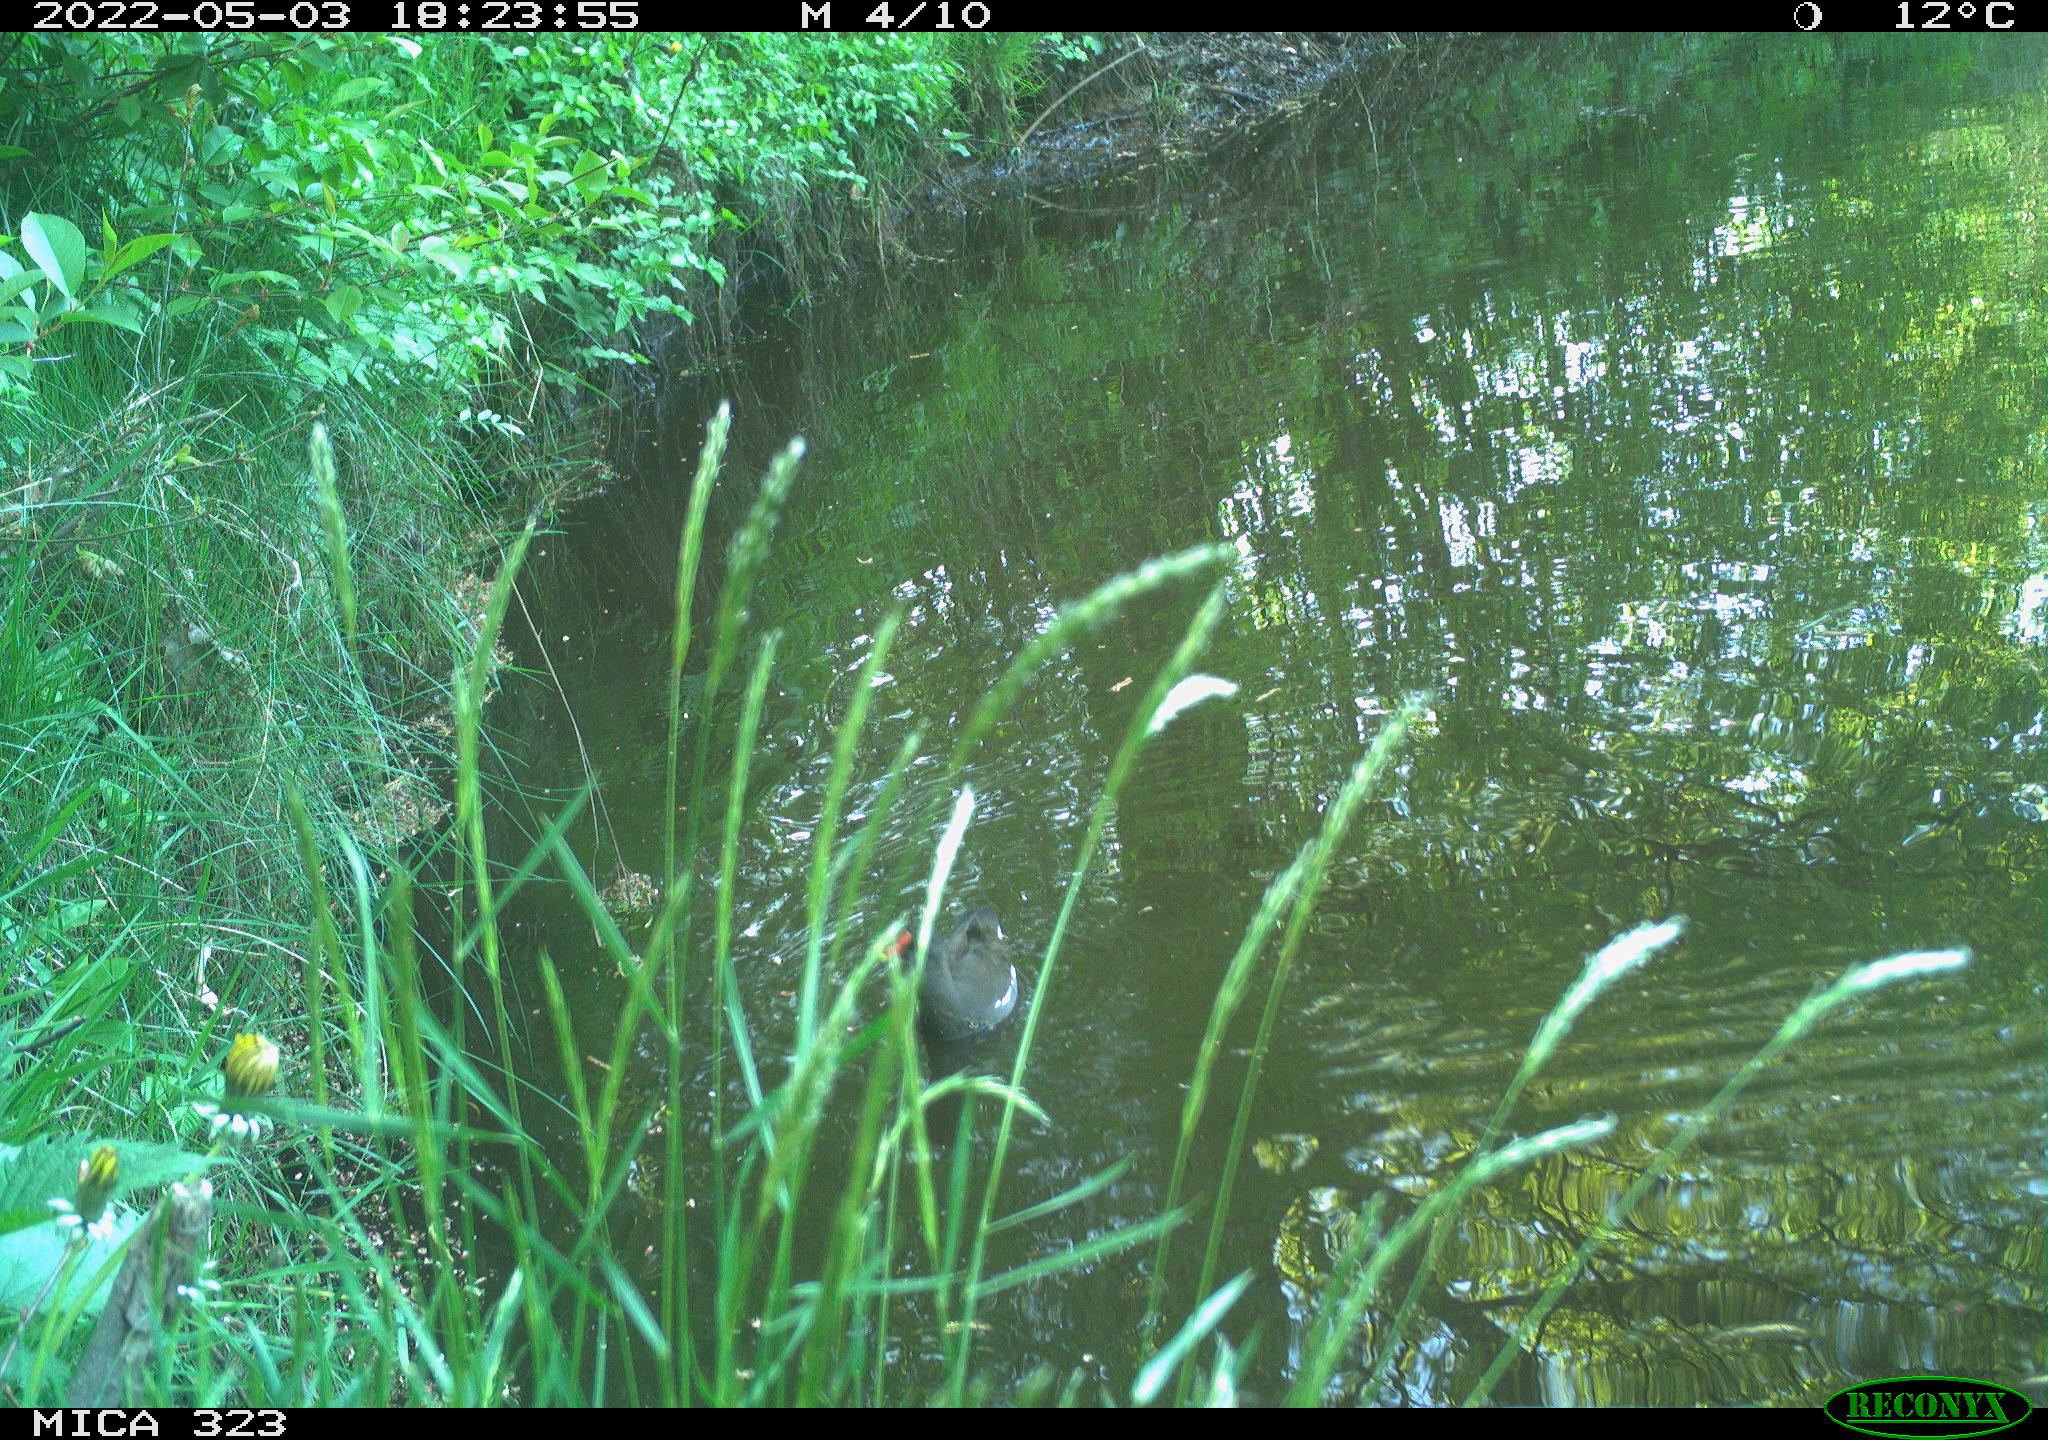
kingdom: Animalia
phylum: Chordata
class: Aves
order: Gruiformes
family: Rallidae
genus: Gallinula
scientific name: Gallinula chloropus
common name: Common moorhen
